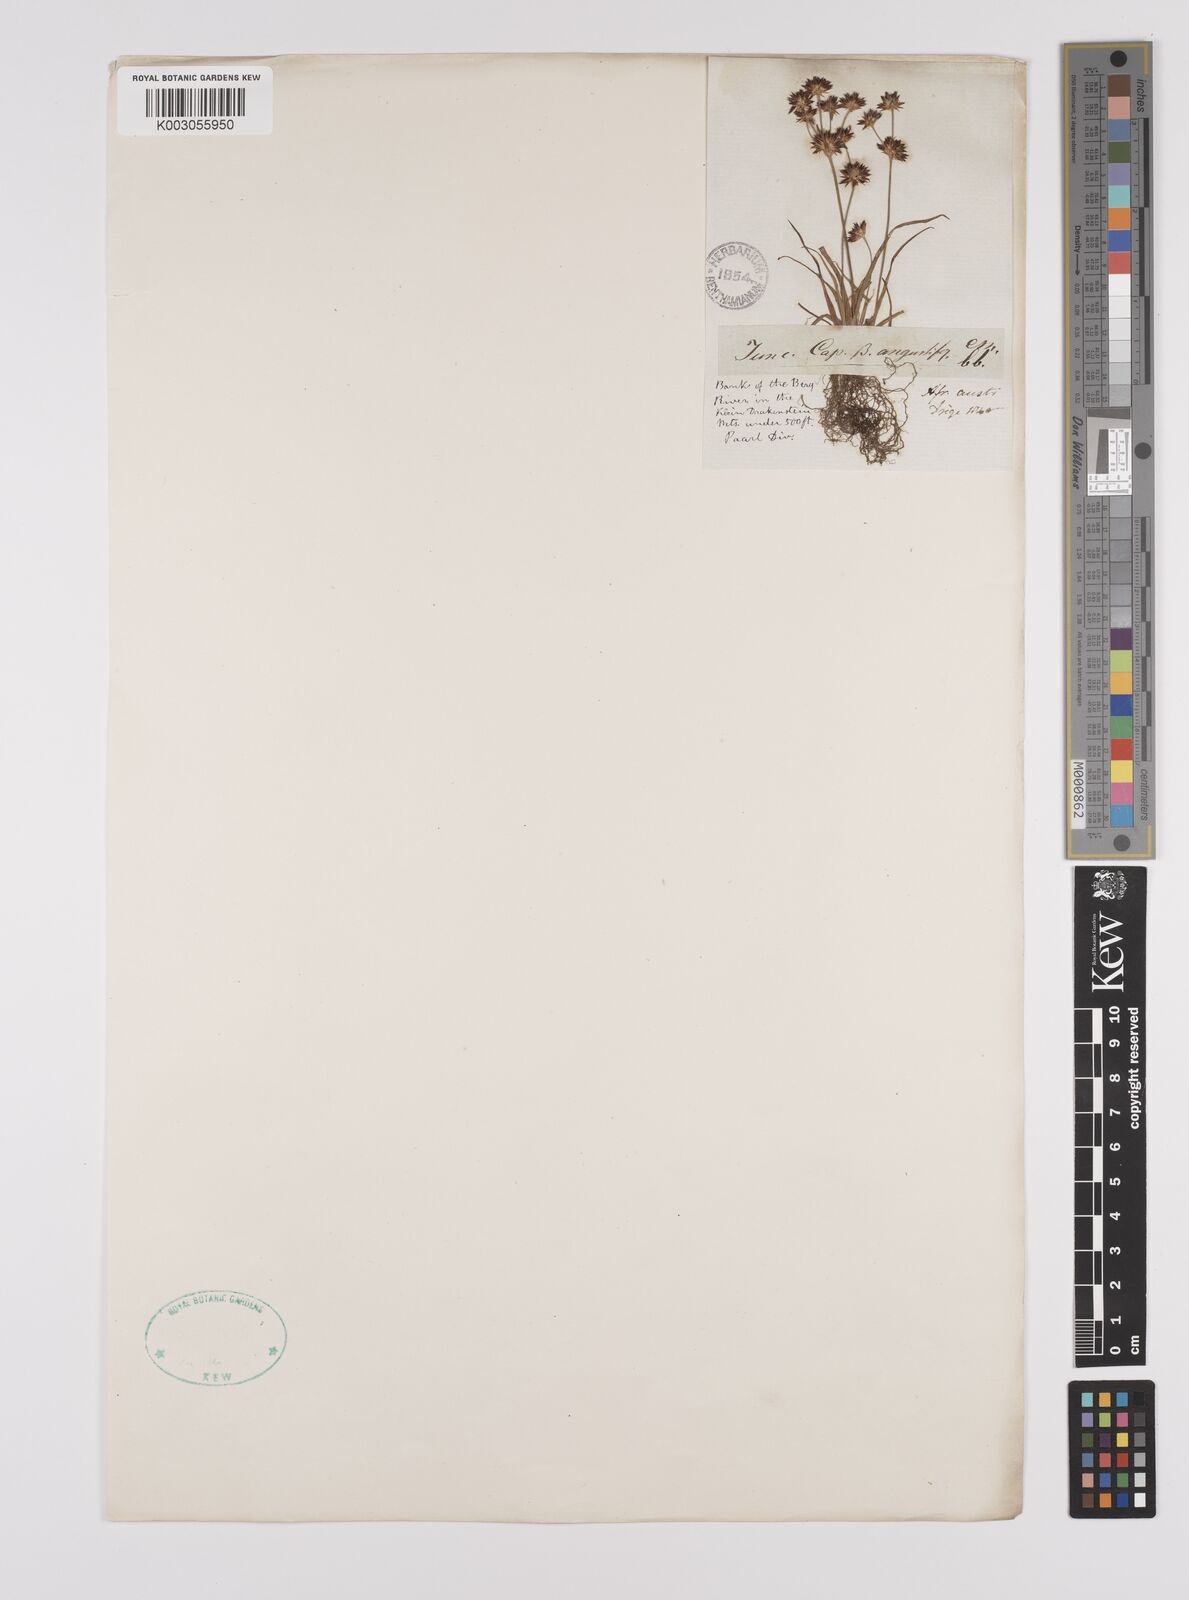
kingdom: Plantae
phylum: Tracheophyta
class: Liliopsida
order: Poales
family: Juncaceae
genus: Juncus
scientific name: Juncus capensis
